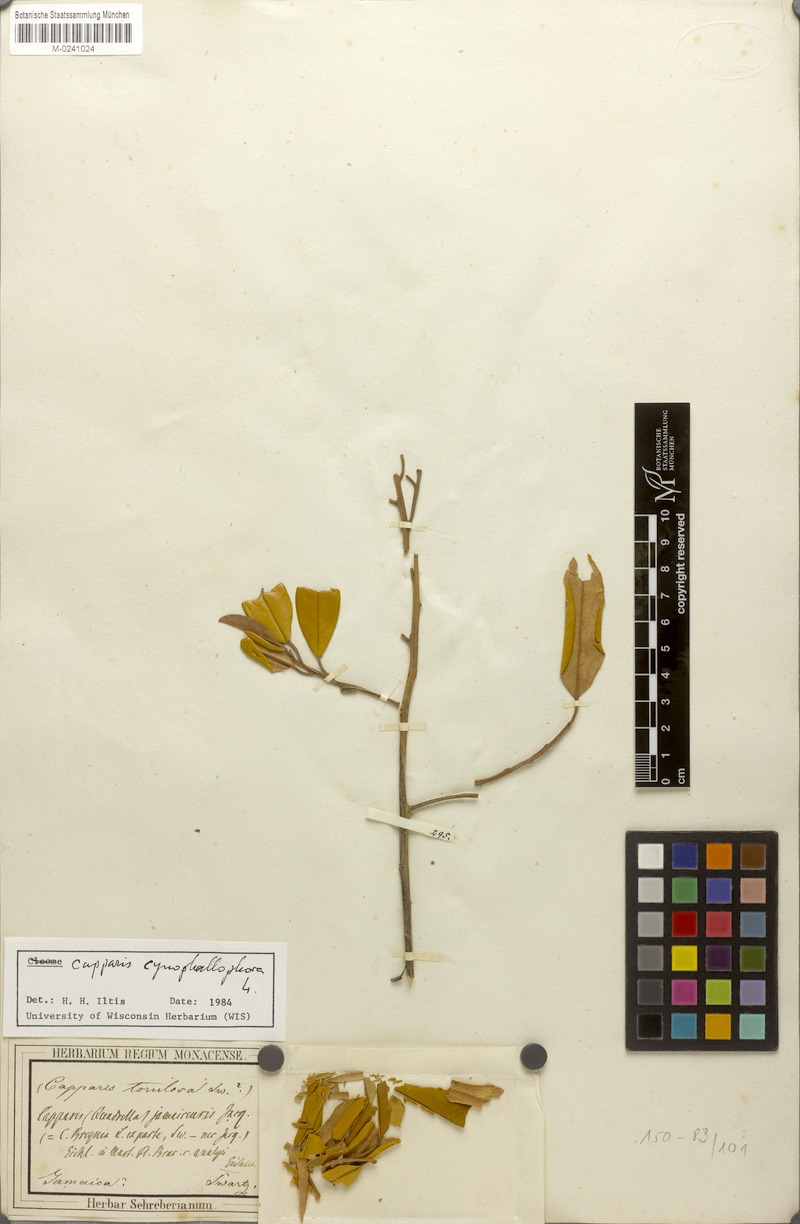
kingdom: Plantae
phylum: Tracheophyta
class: Magnoliopsida
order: Brassicales
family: Capparaceae
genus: Quadrella
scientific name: Quadrella cynophallophora
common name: Black willow
